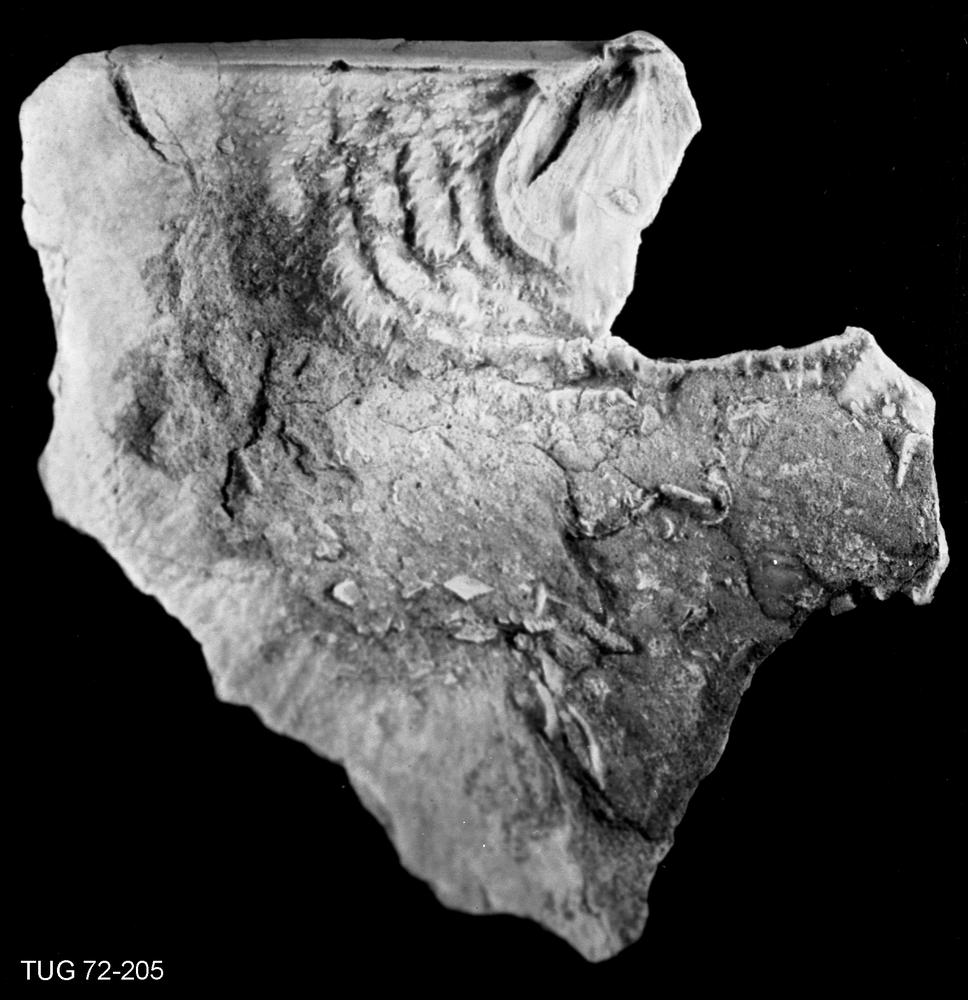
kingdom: Animalia
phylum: Brachiopoda
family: Strophomenidae
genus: Leptaena
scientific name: Leptaena
